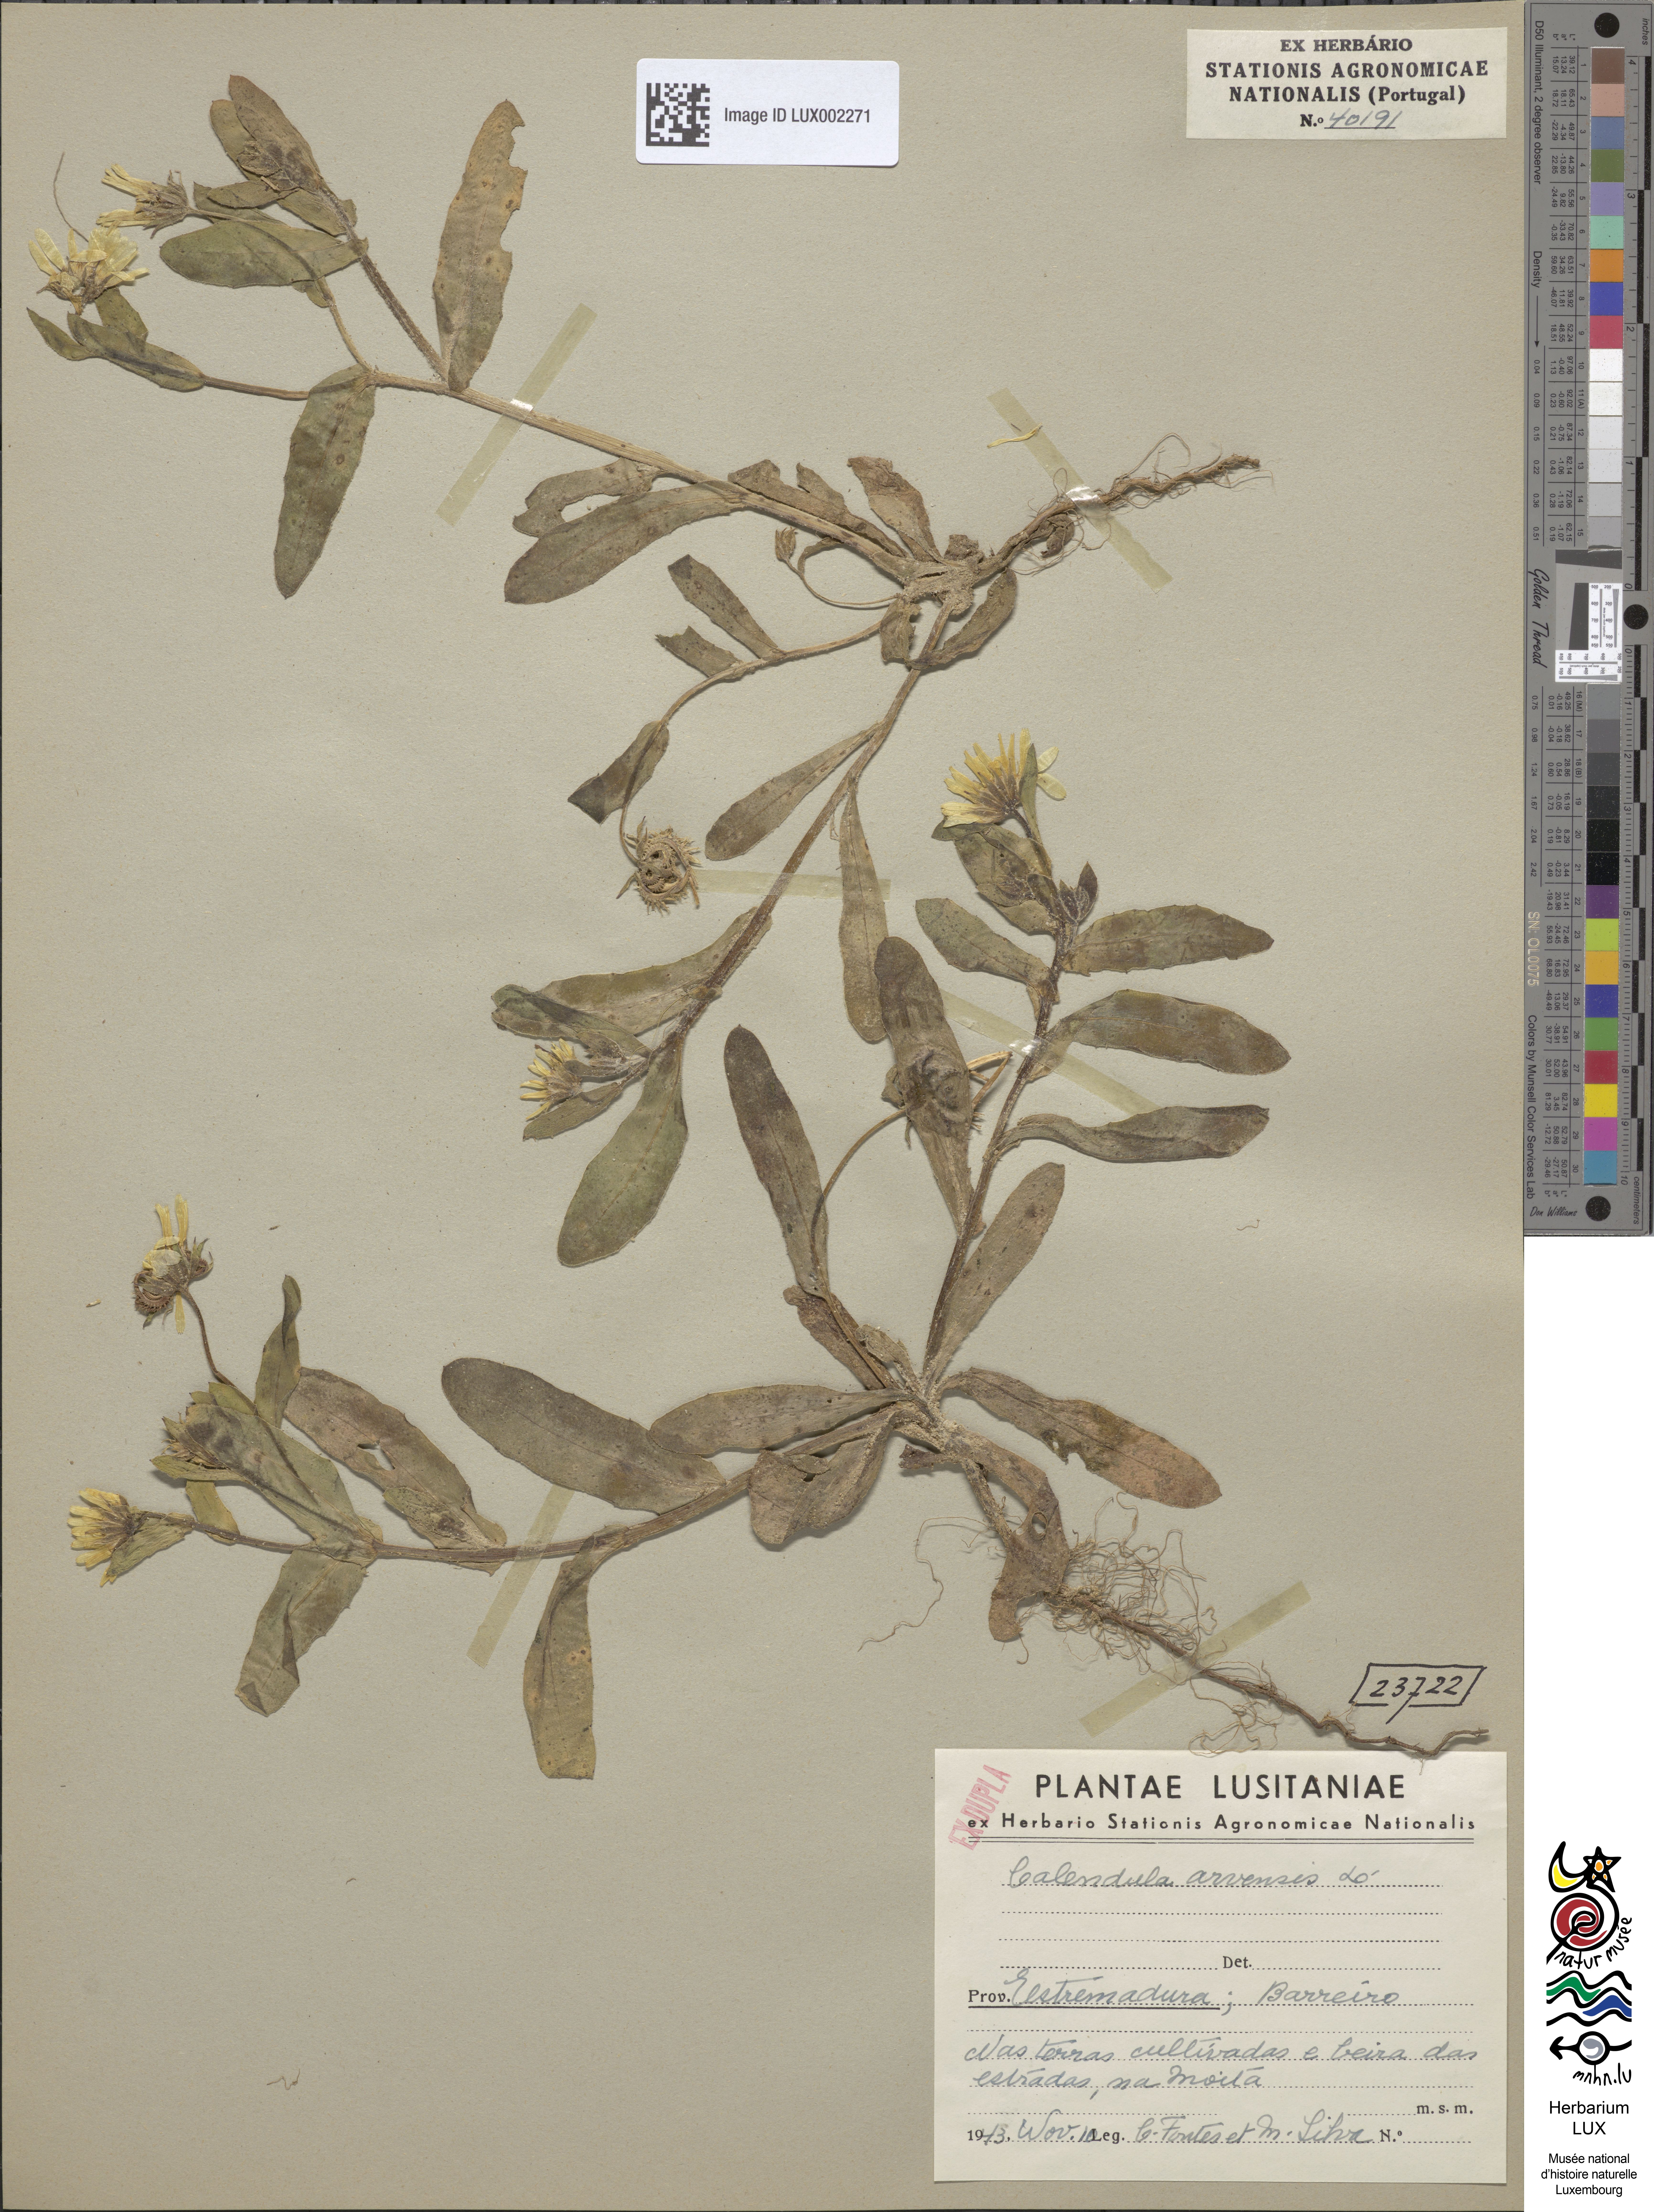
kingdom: Plantae
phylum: Tracheophyta
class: Magnoliopsida
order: Asterales
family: Asteraceae
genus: Calendula
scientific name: Calendula arvensis
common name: Field marigold
